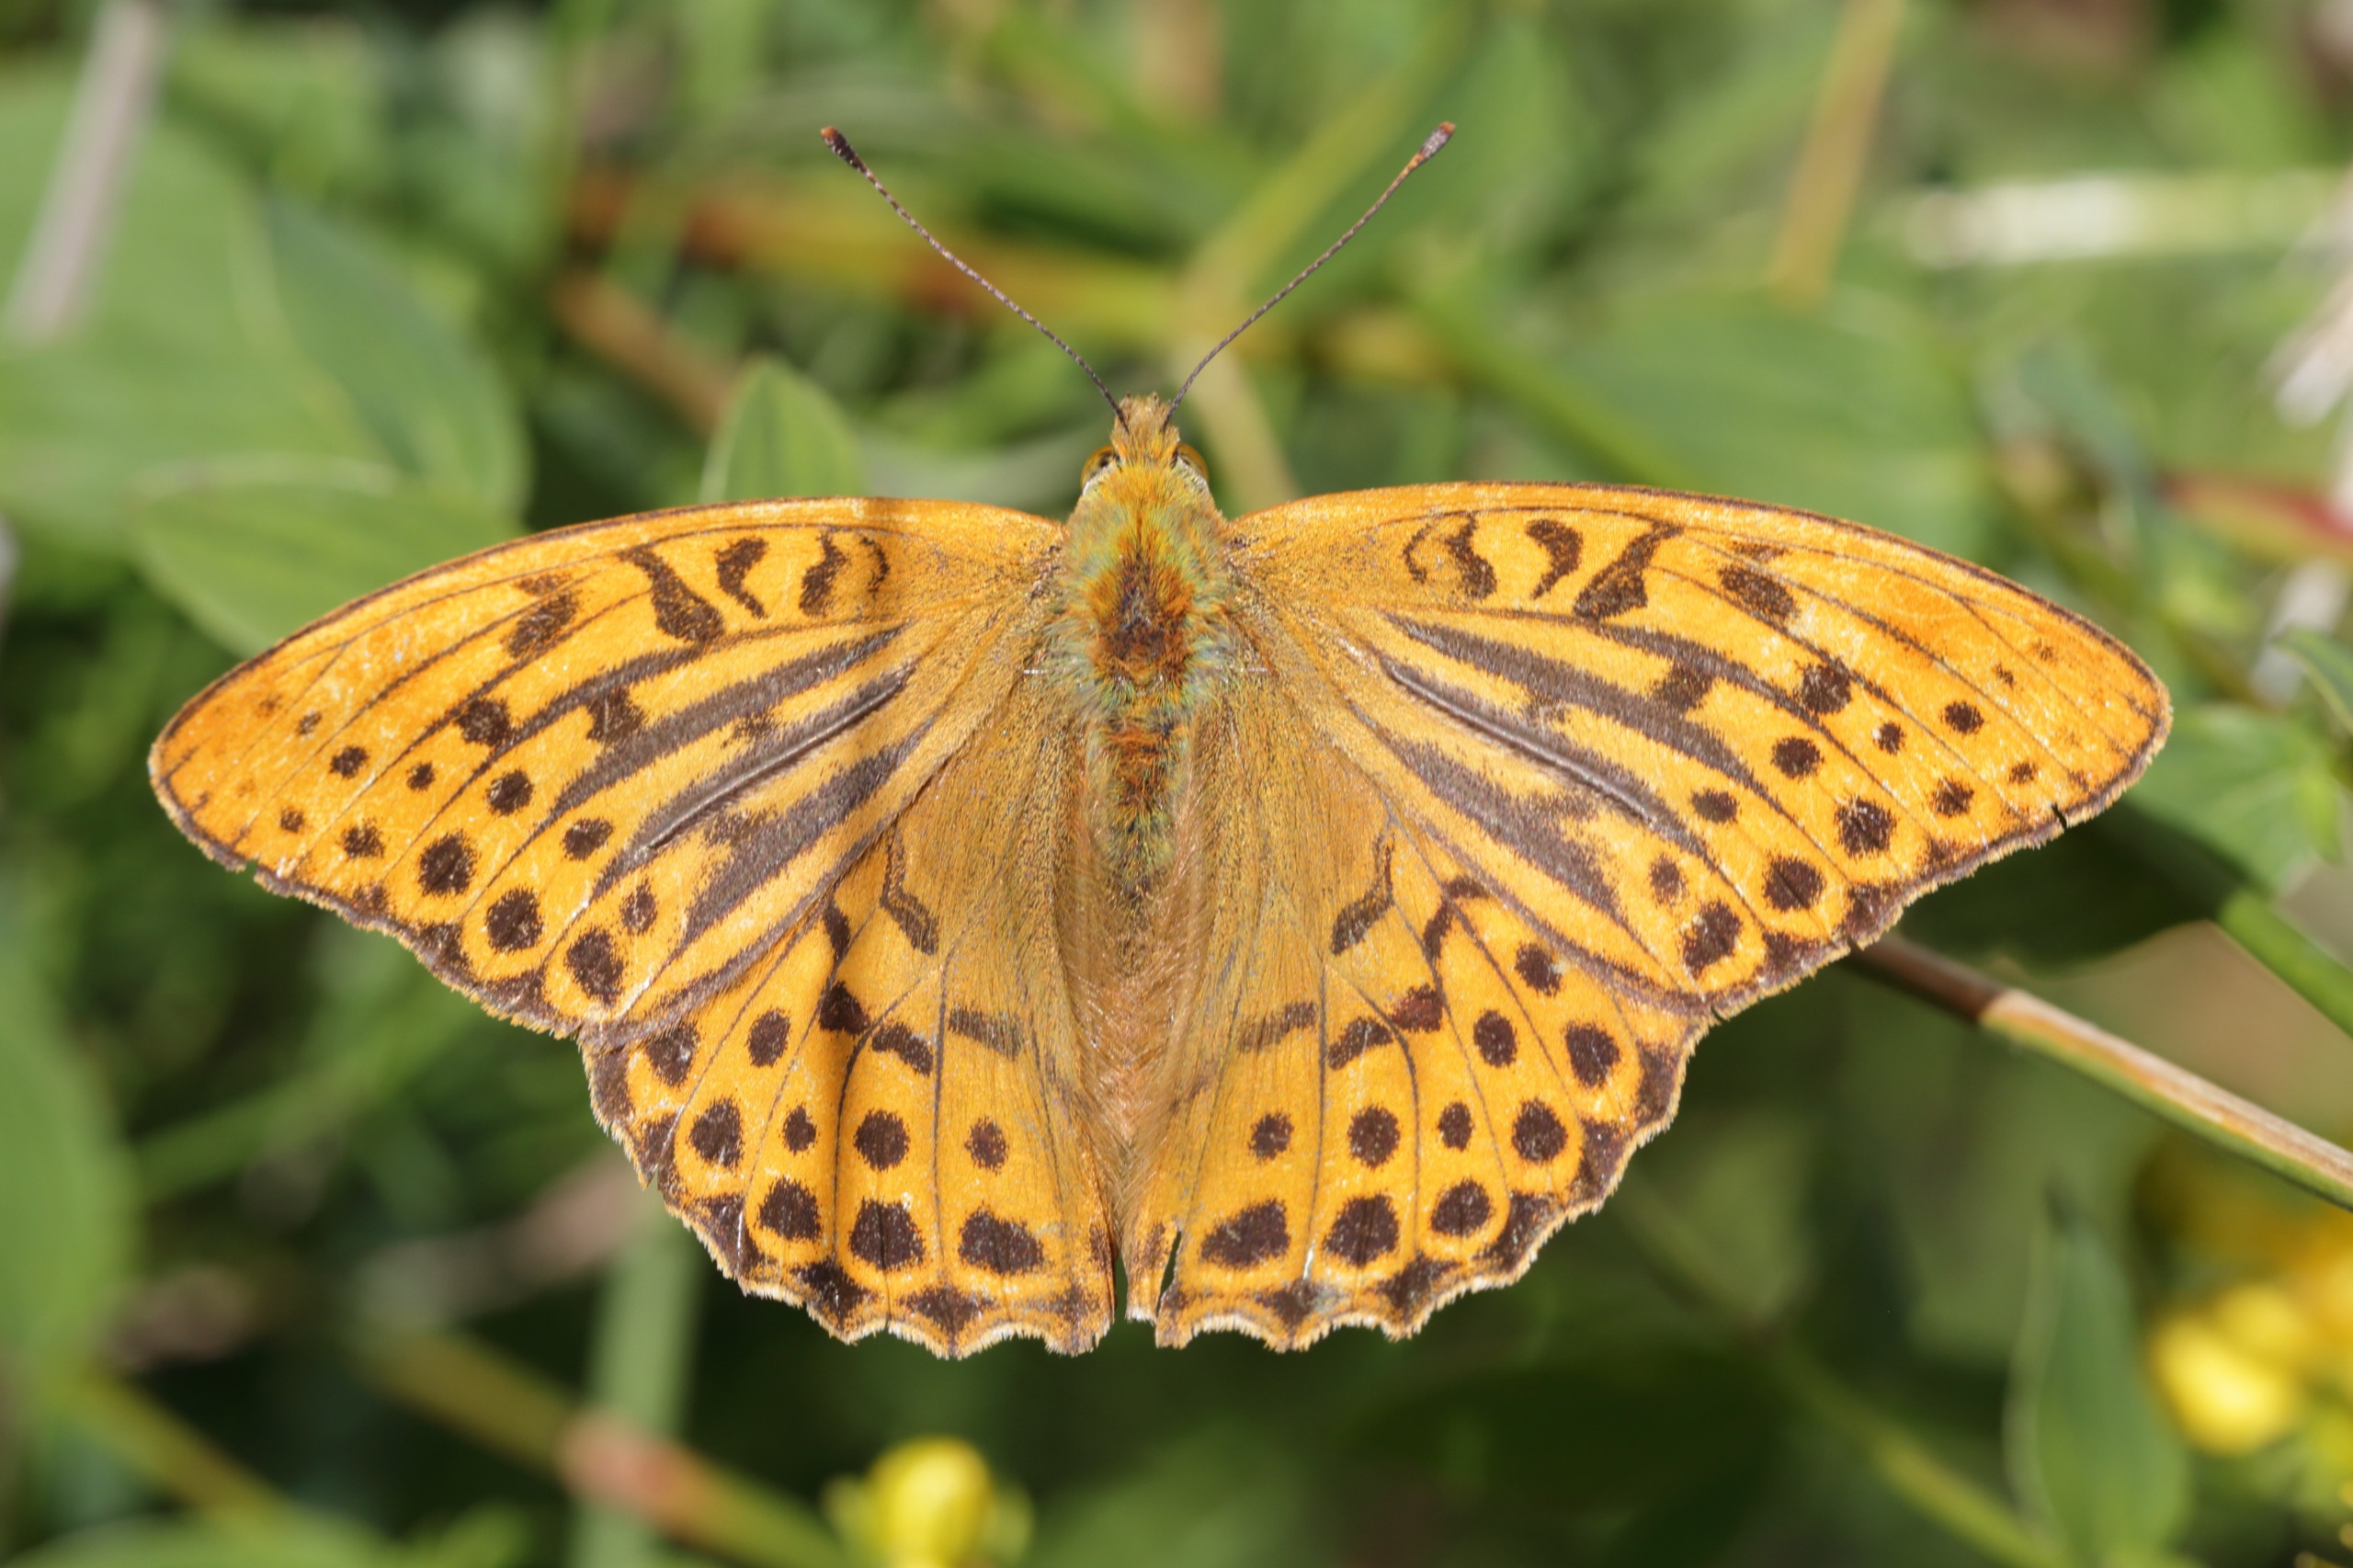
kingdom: Animalia
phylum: Arthropoda
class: Insecta
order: Lepidoptera
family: Nymphalidae
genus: Argynnis
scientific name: Argynnis paphia
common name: Kejserkåbe
